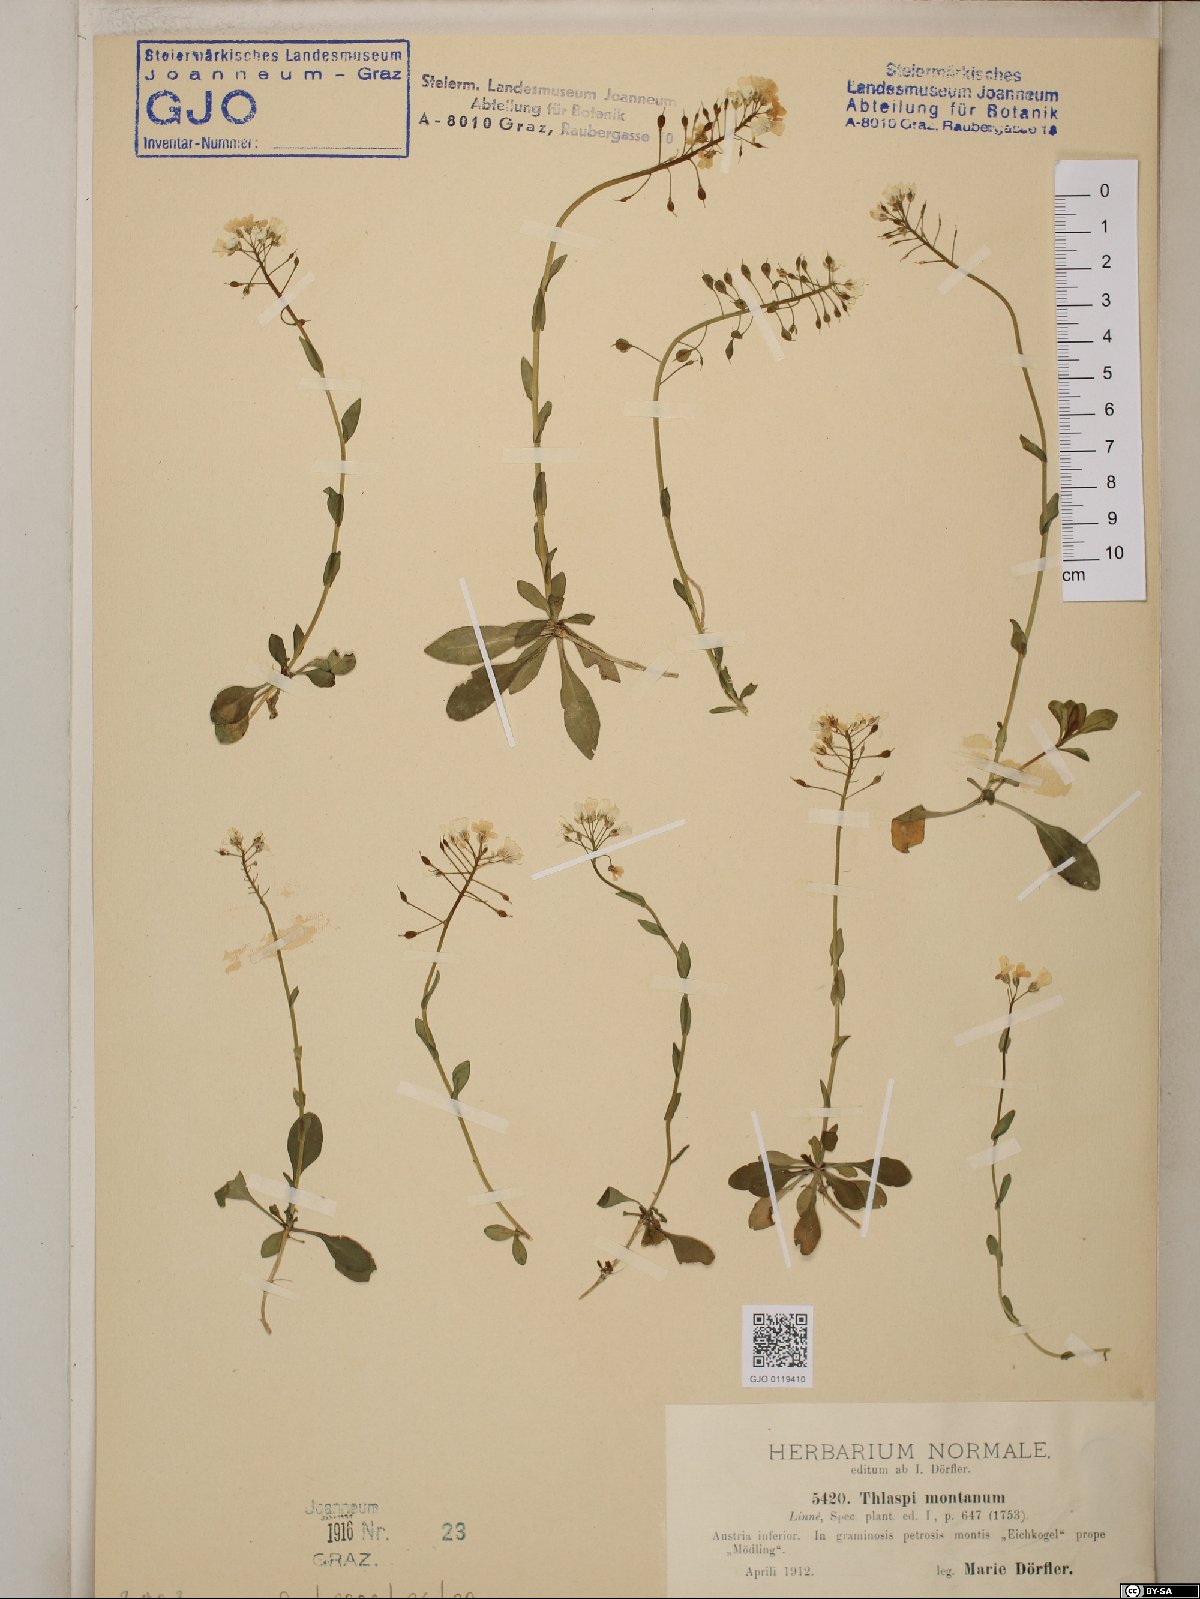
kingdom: Plantae
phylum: Tracheophyta
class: Magnoliopsida
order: Brassicales
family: Brassicaceae
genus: Noccaea
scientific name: Noccaea montana
